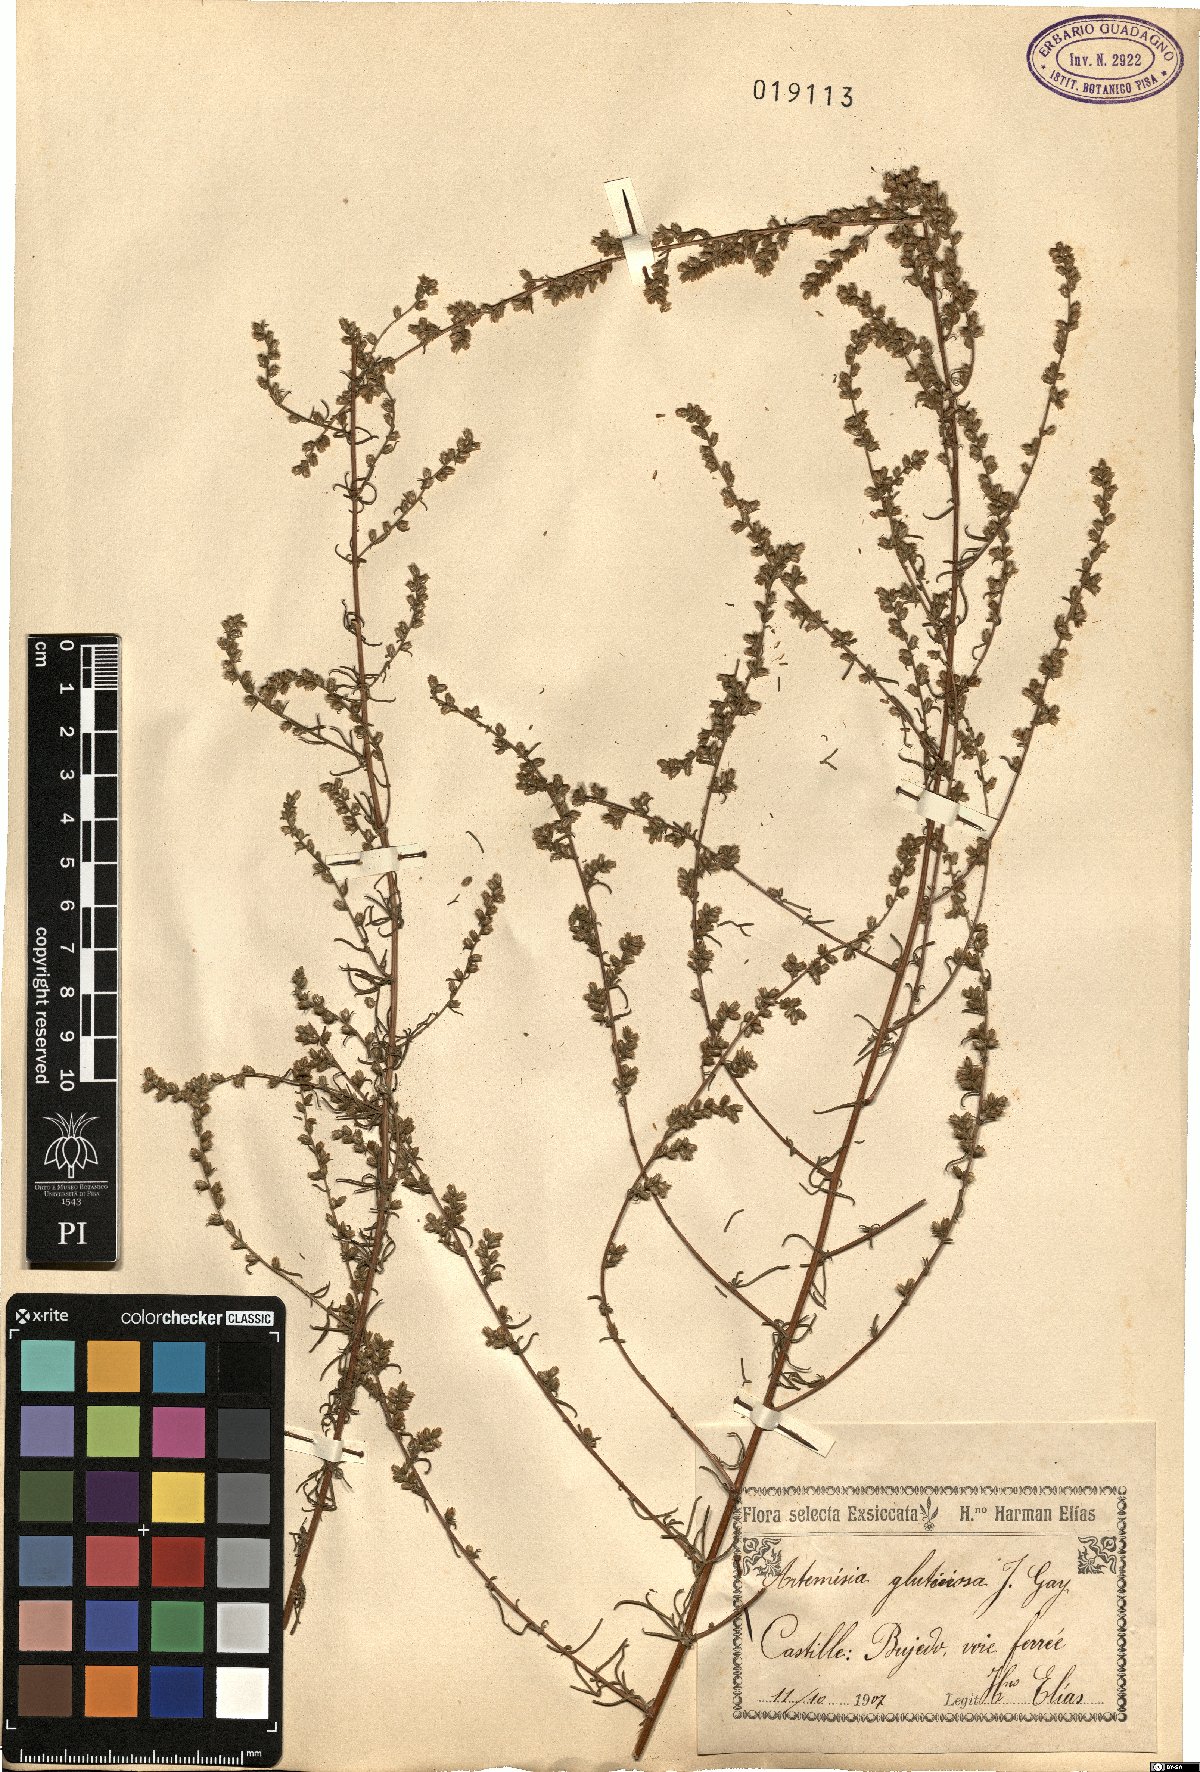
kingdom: Plantae
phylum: Tracheophyta
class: Magnoliopsida
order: Asterales
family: Asteraceae
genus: Artemisia
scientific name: Artemisia campestris
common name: Field wormwood
